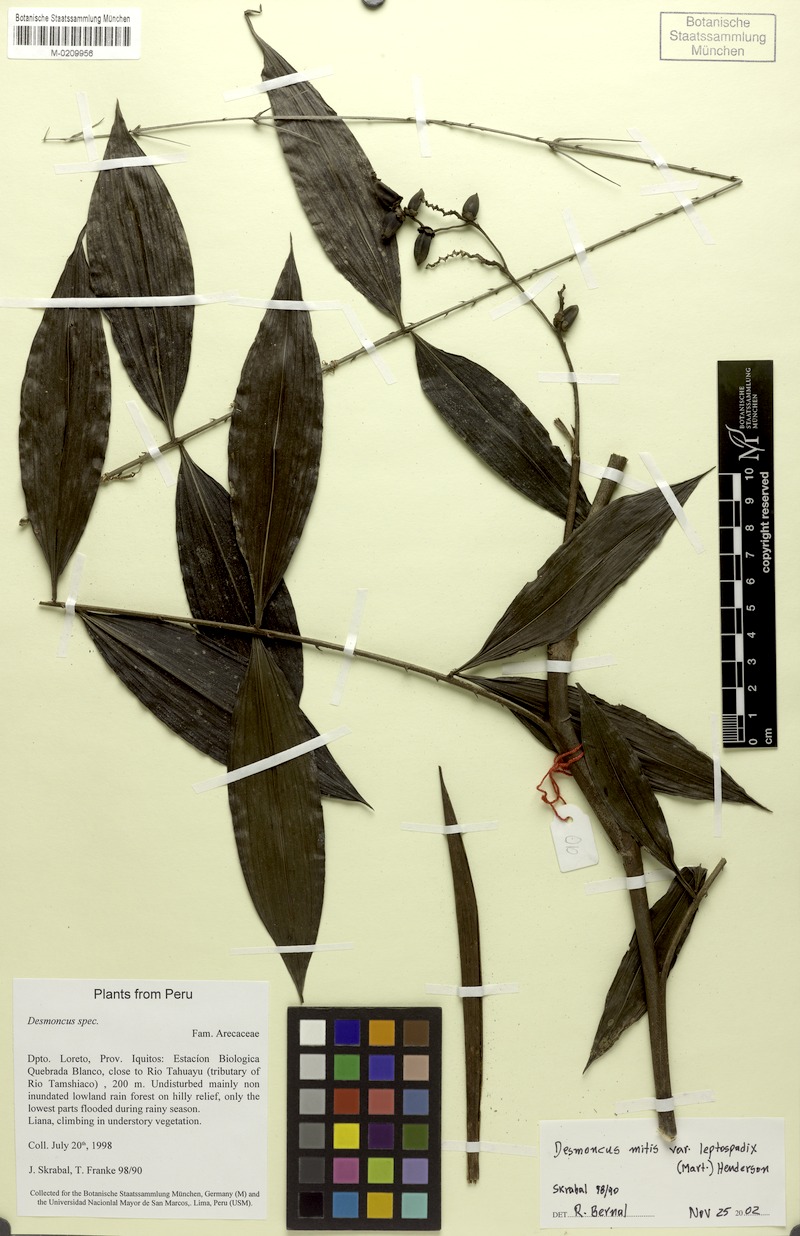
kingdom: Plantae
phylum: Tracheophyta
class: Liliopsida
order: Arecales
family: Arecaceae
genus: Desmoncus
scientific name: Desmoncus mitis
